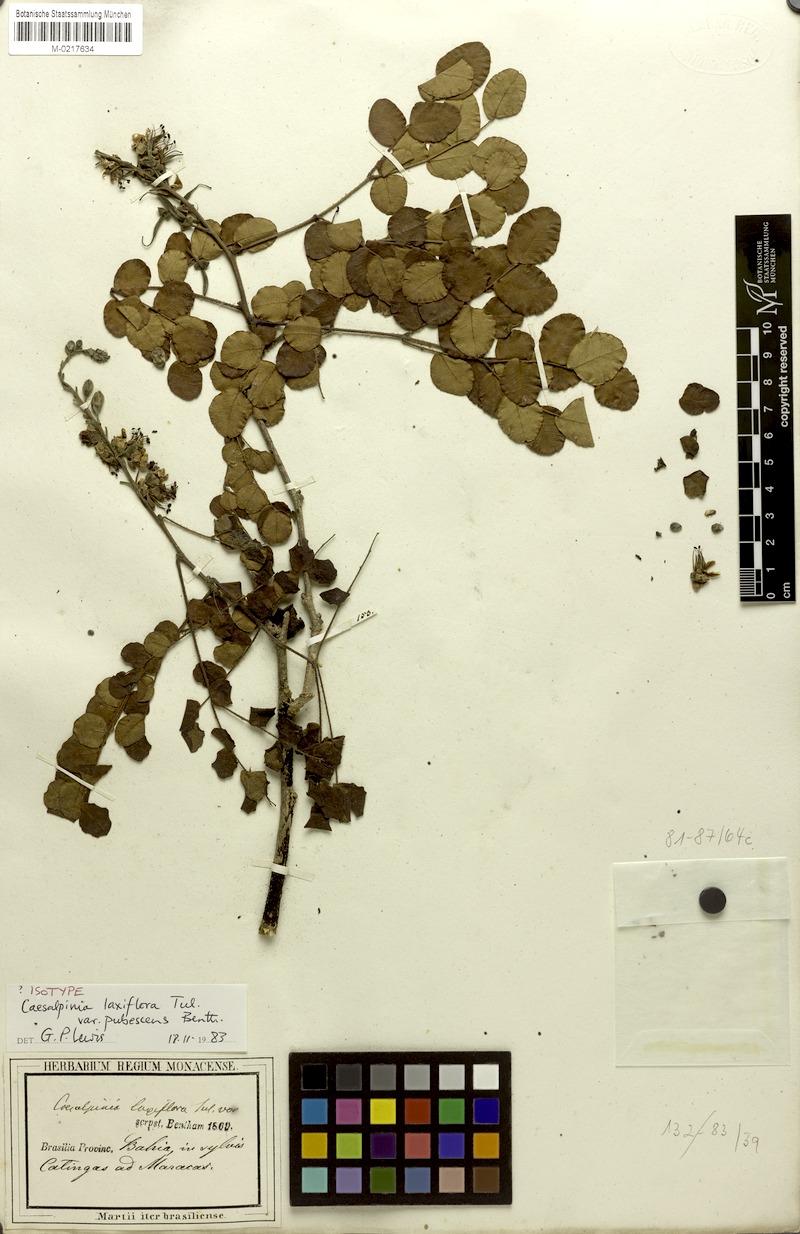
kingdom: Plantae
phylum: Tracheophyta
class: Magnoliopsida
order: Fabales
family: Fabaceae
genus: Cenostigma
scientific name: Cenostigma laxiflorum
